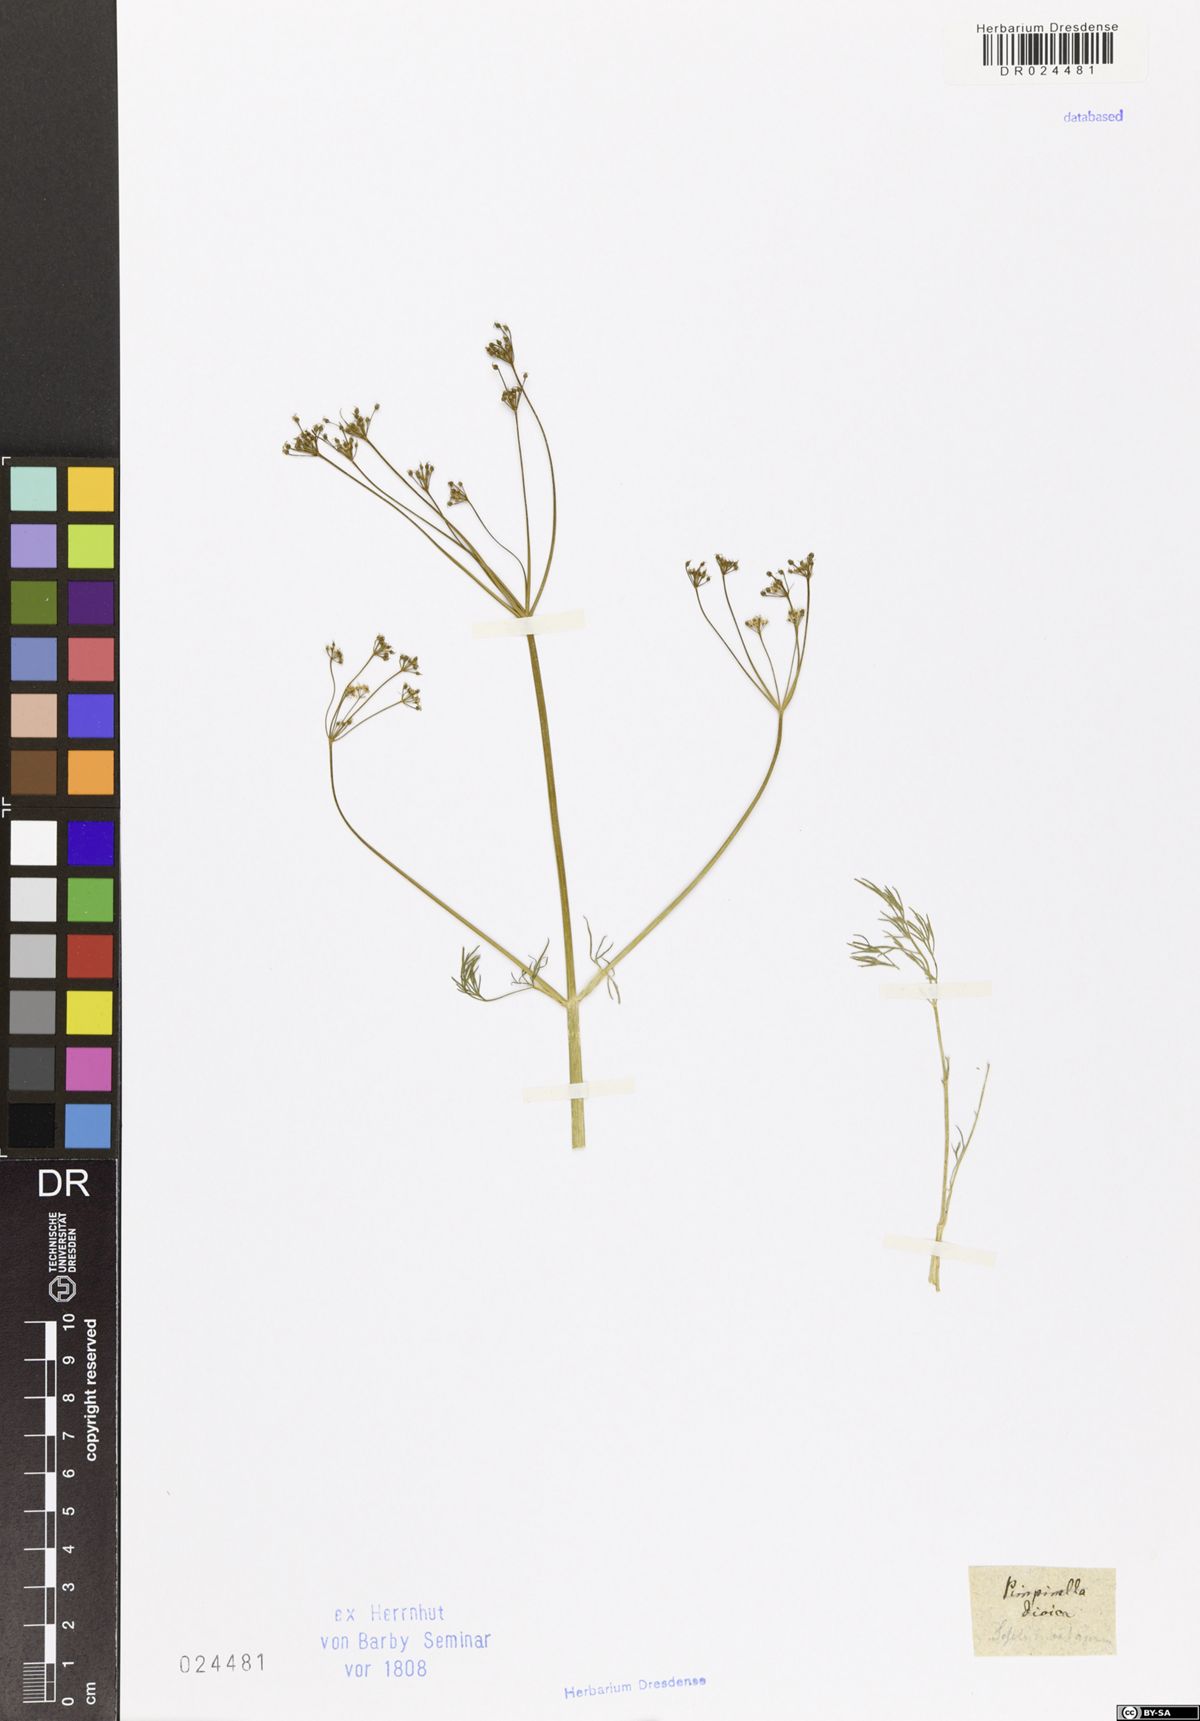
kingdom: Plantae
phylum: Tracheophyta
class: Magnoliopsida
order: Apiales
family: Apiaceae
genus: Trinia
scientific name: Trinia multicaulis
